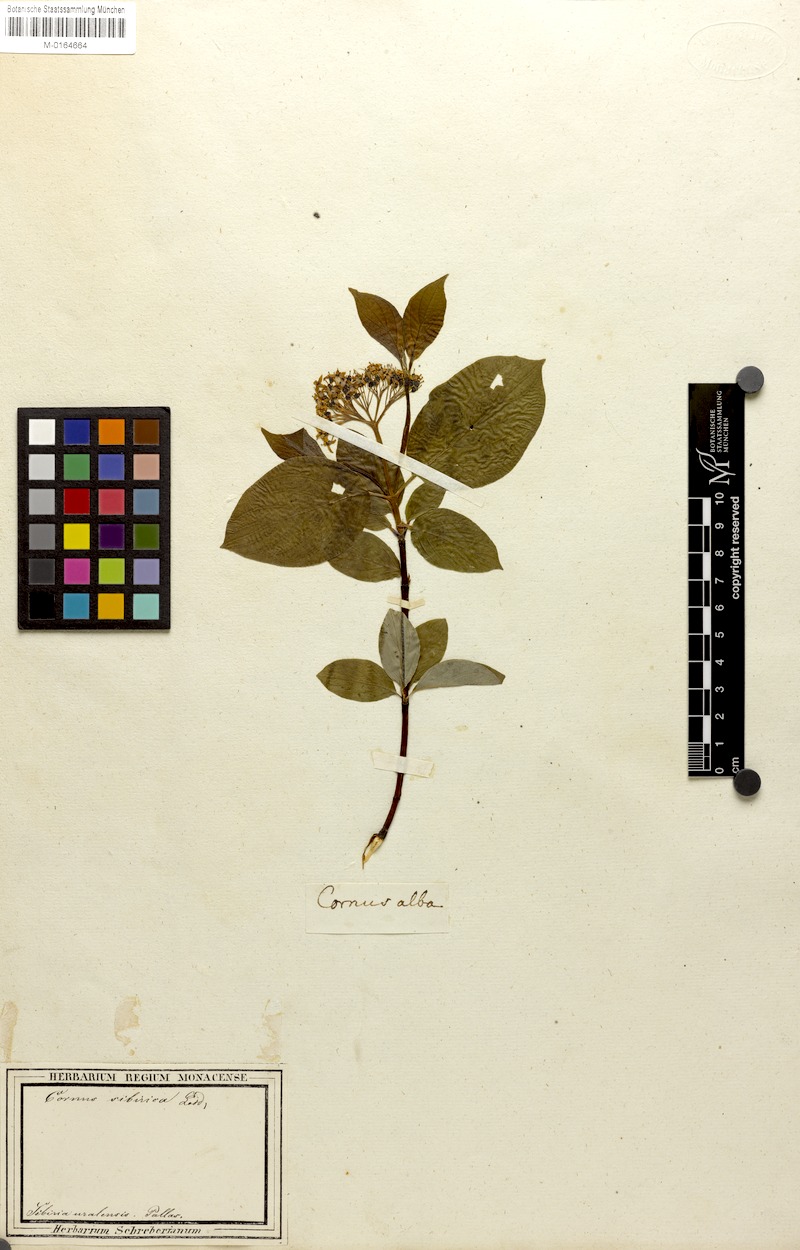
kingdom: Plantae
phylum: Tracheophyta
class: Magnoliopsida
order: Cornales
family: Cornaceae
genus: Cornus
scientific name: Cornus alba
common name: White dogwood
